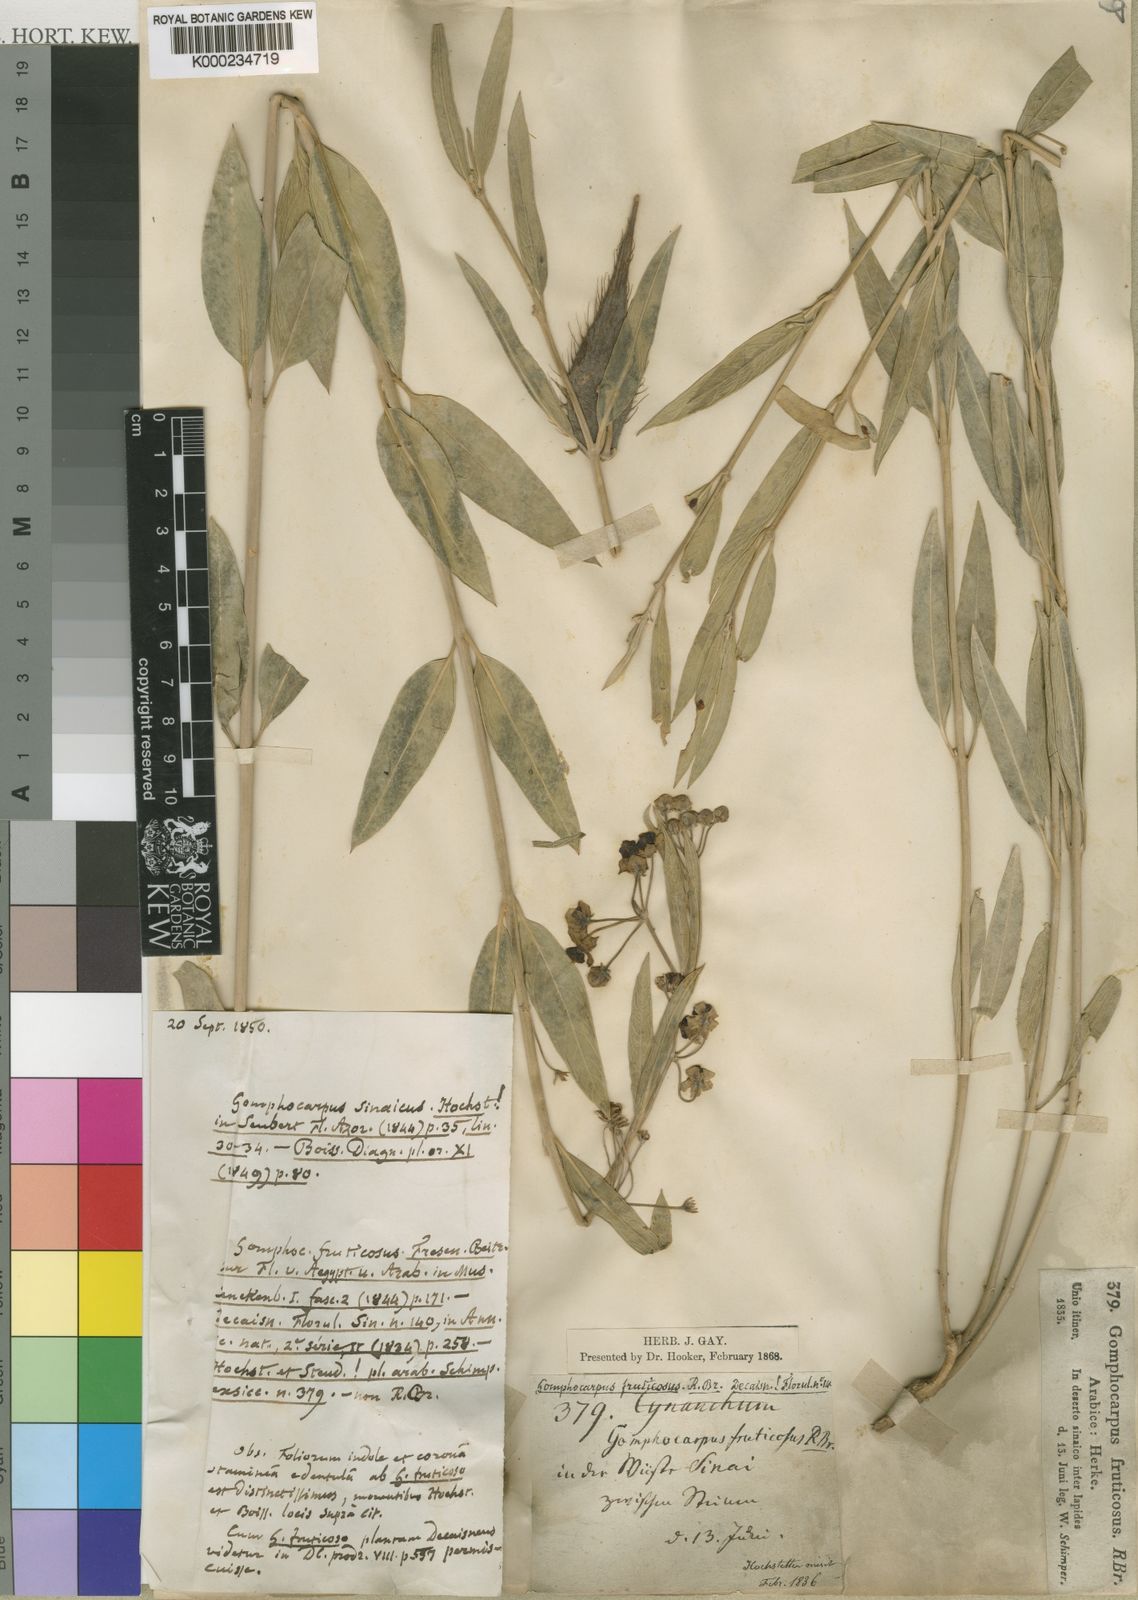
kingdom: Plantae
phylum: Tracheophyta
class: Magnoliopsida
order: Gentianales
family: Apocynaceae
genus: Gomphocarpus
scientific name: Gomphocarpus sinaicus
